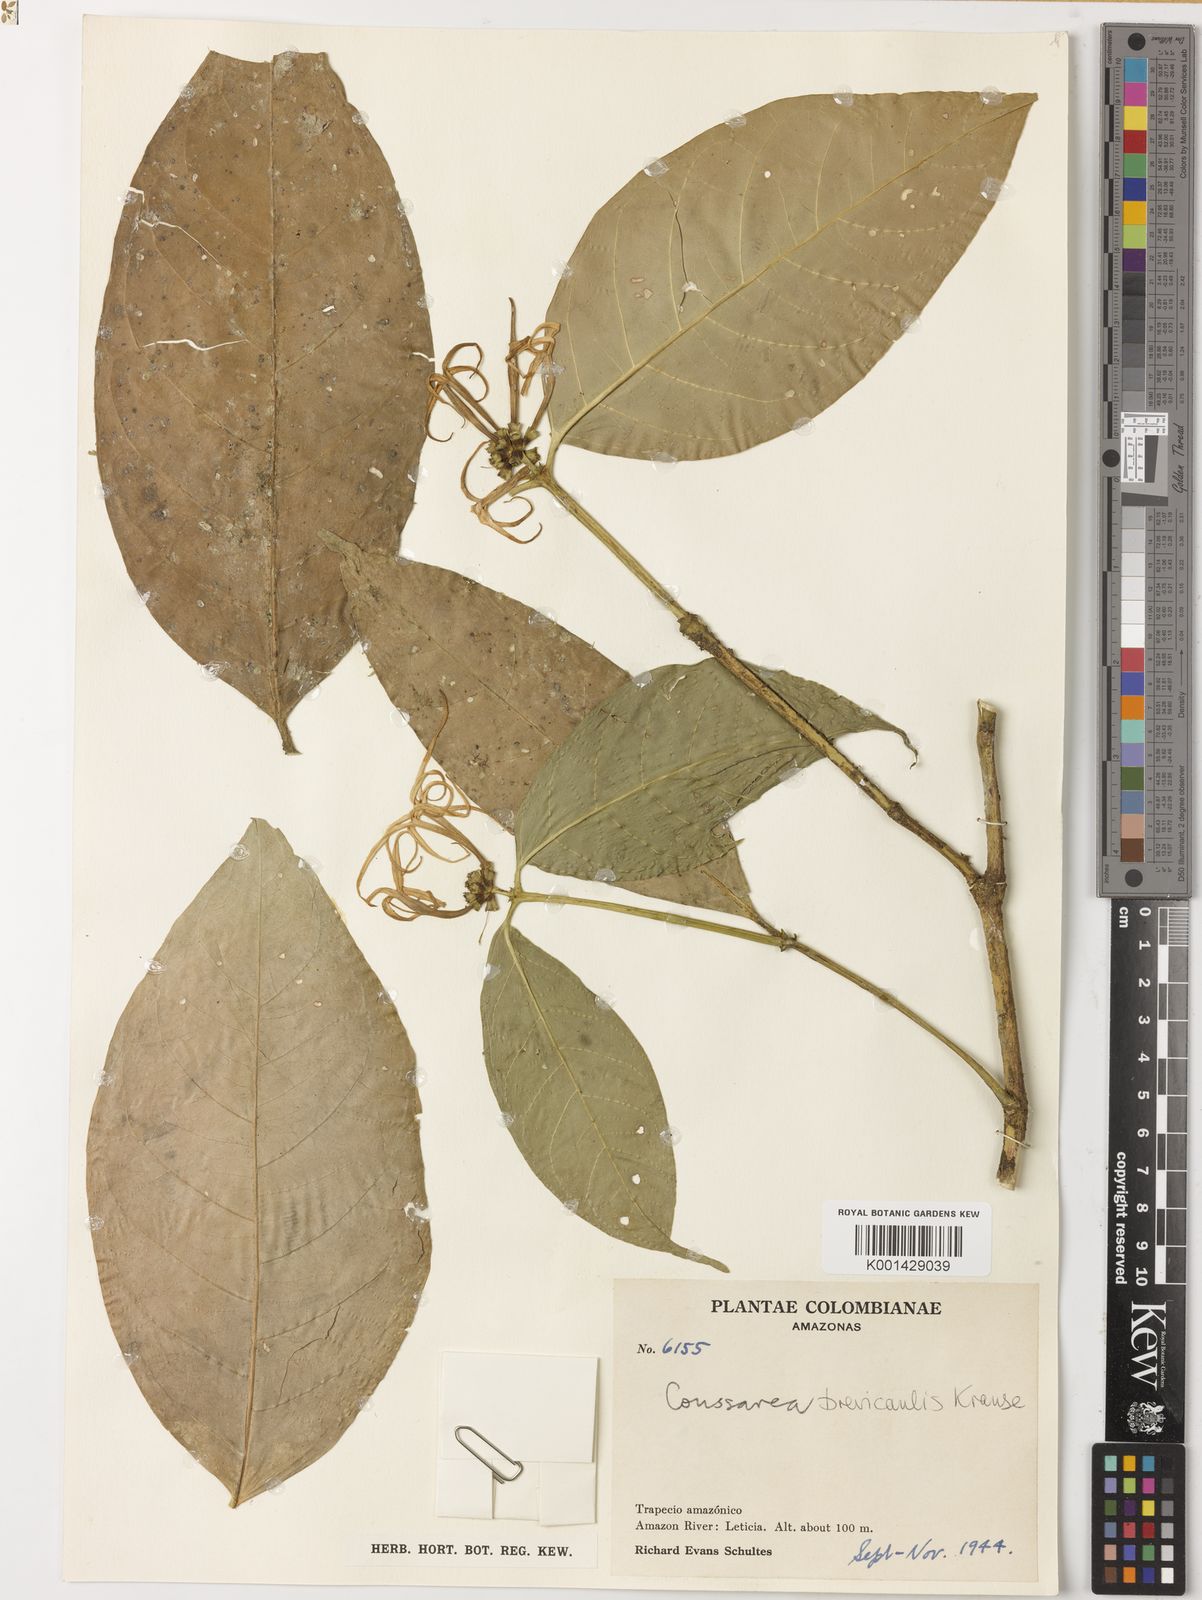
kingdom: Plantae
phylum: Tracheophyta
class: Magnoliopsida
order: Gentianales
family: Rubiaceae
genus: Coussarea
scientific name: Coussarea brevicaulis
